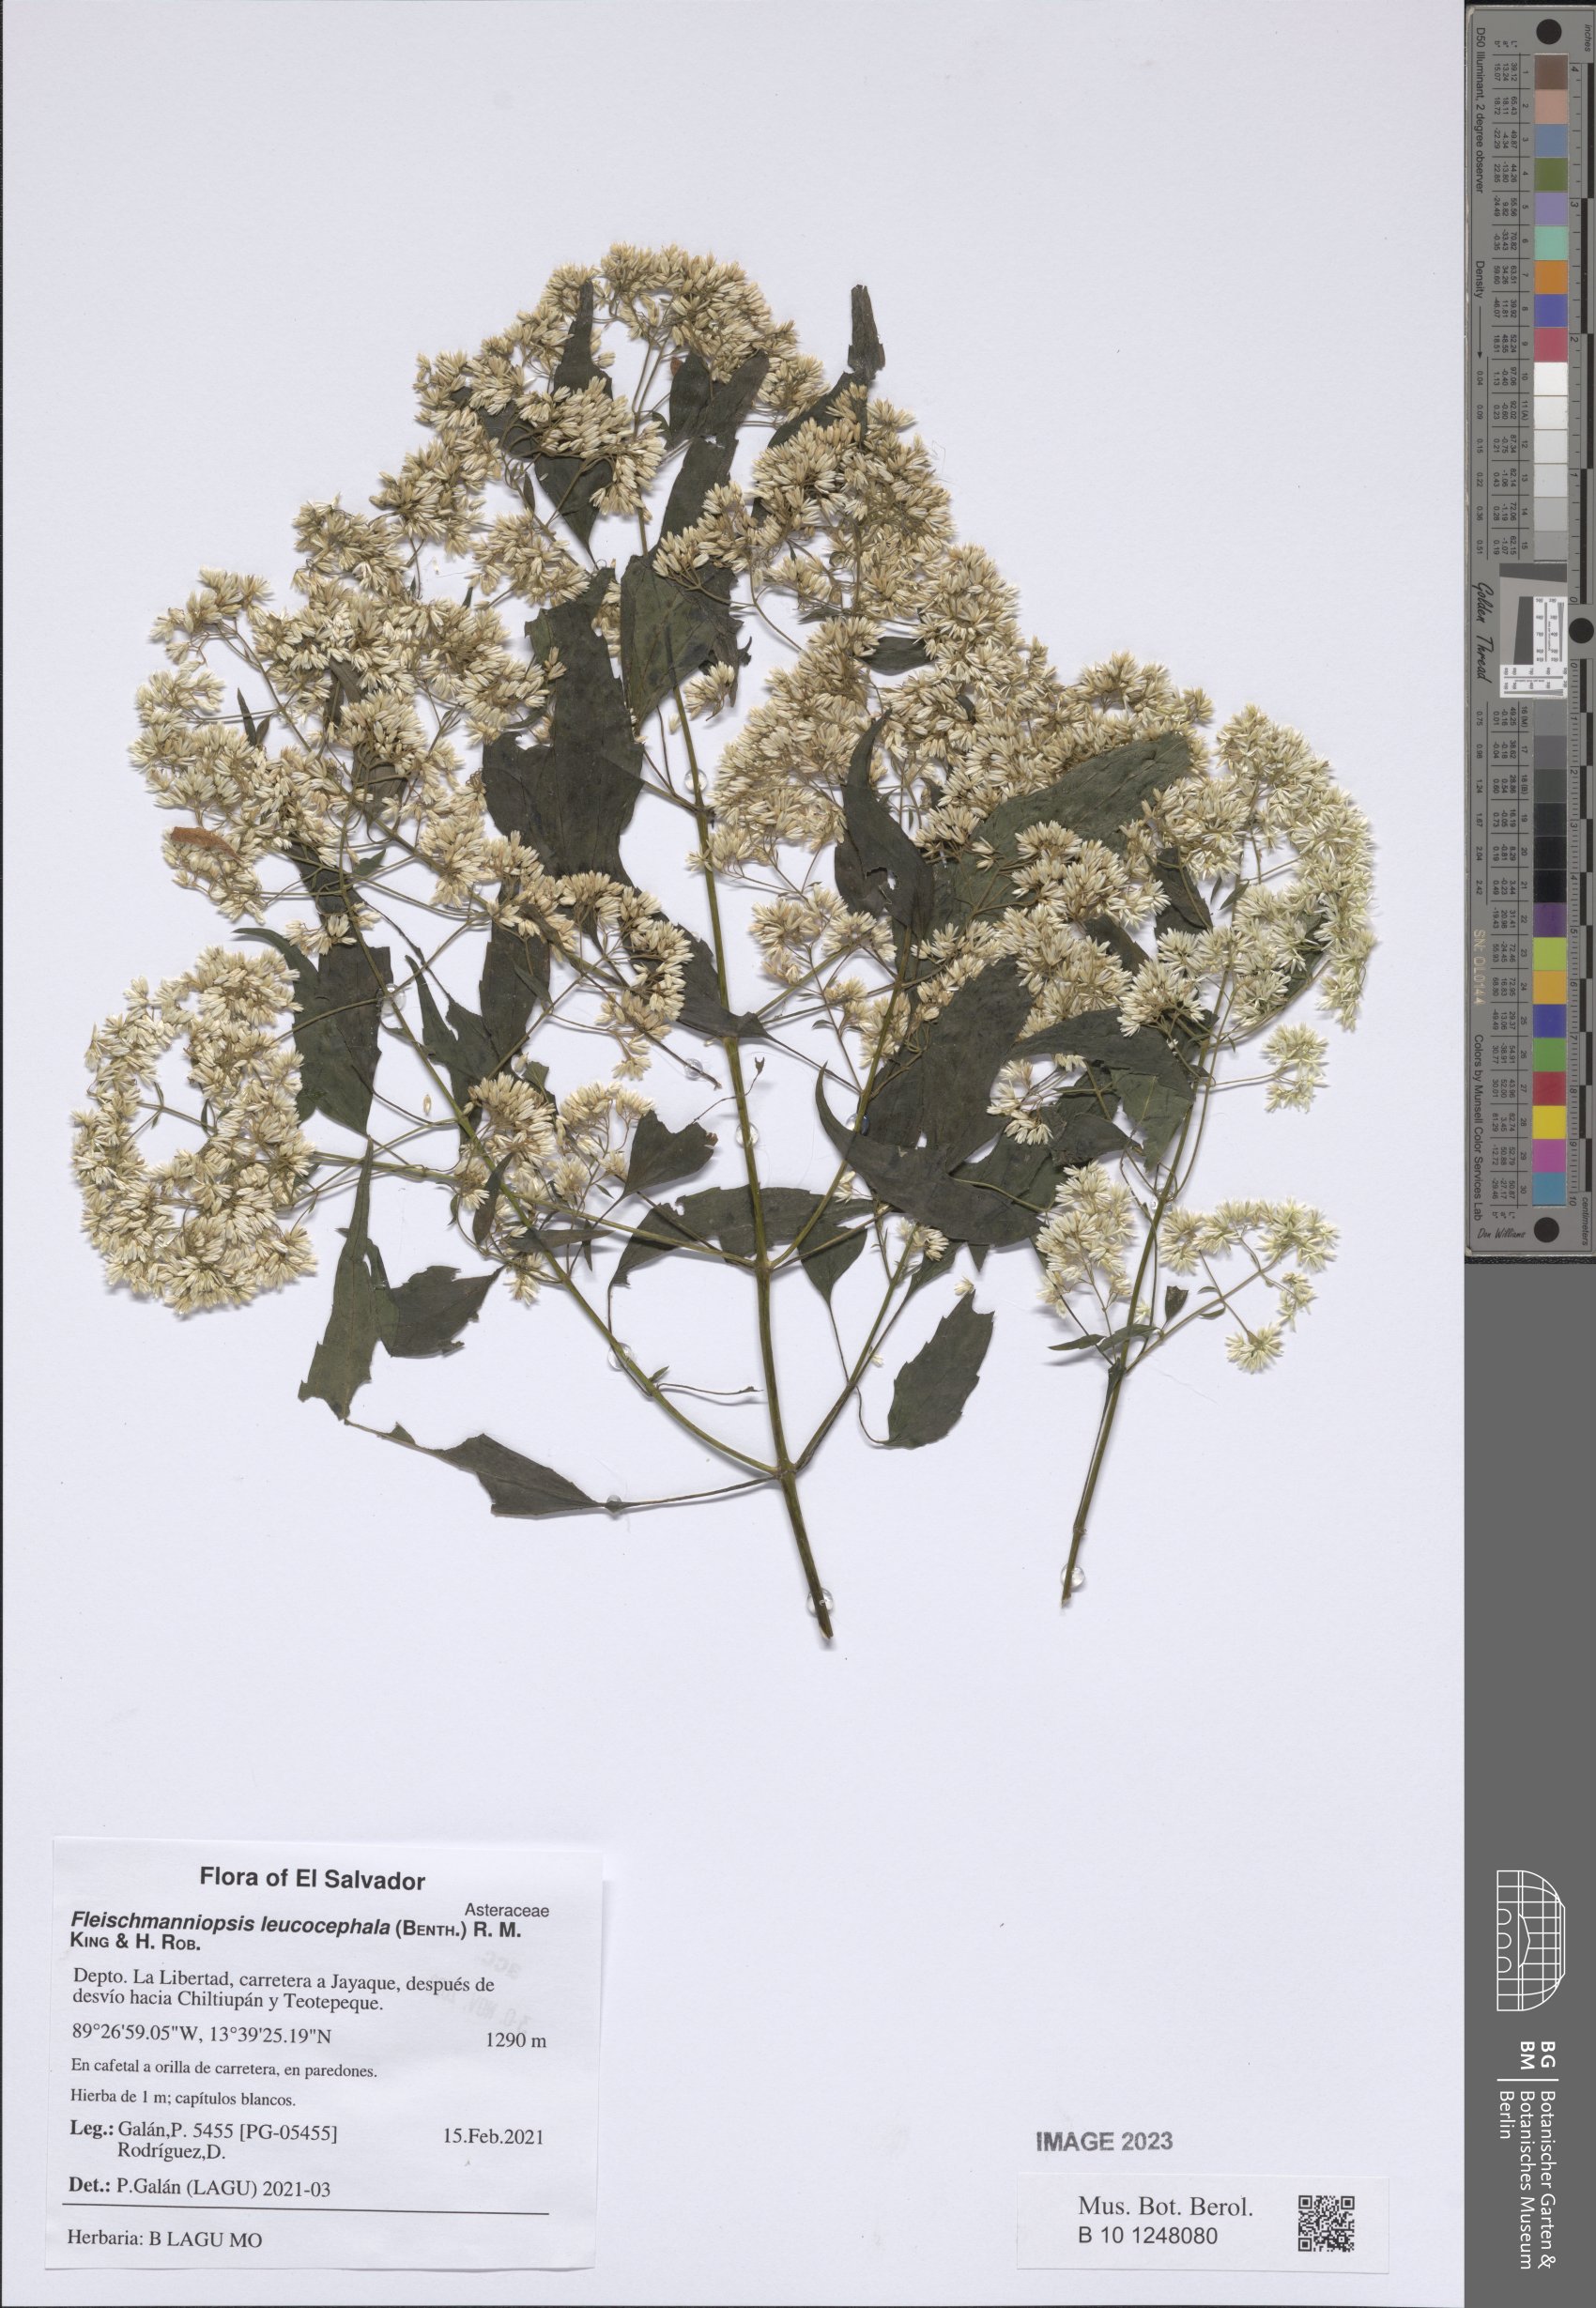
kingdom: Plantae
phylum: Tracheophyta
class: Magnoliopsida
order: Asterales
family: Asteraceae
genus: Fleischmanniopsis
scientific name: Fleischmanniopsis leucocephala
